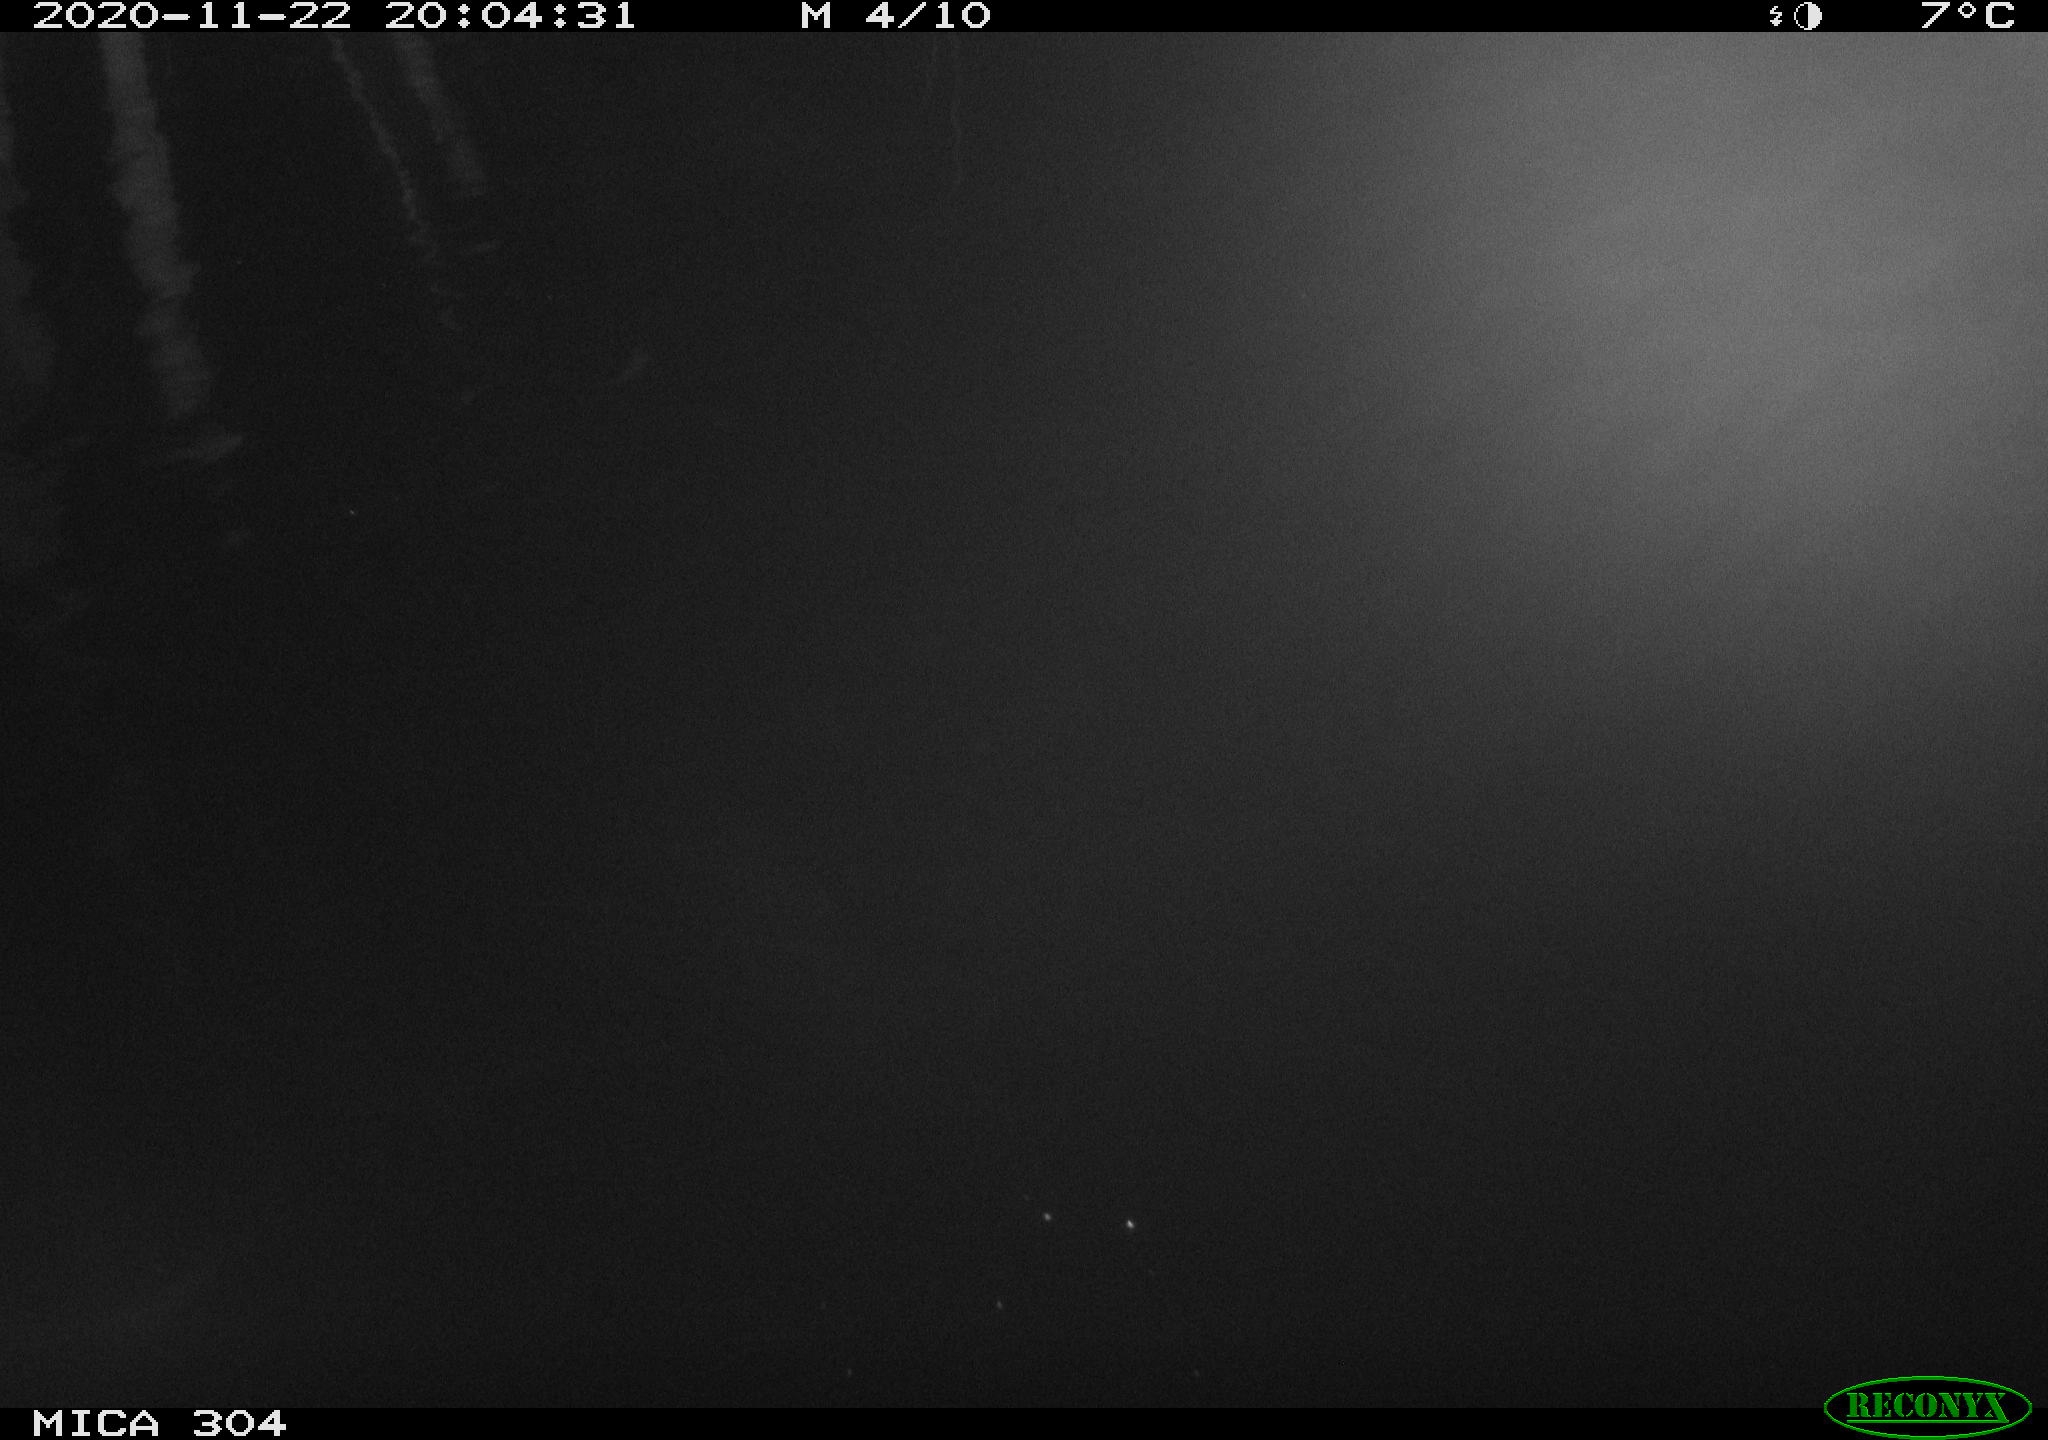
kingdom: Animalia
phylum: Chordata
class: Mammalia
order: Rodentia
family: Muridae
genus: Rattus
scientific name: Rattus norvegicus
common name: Brown rat
